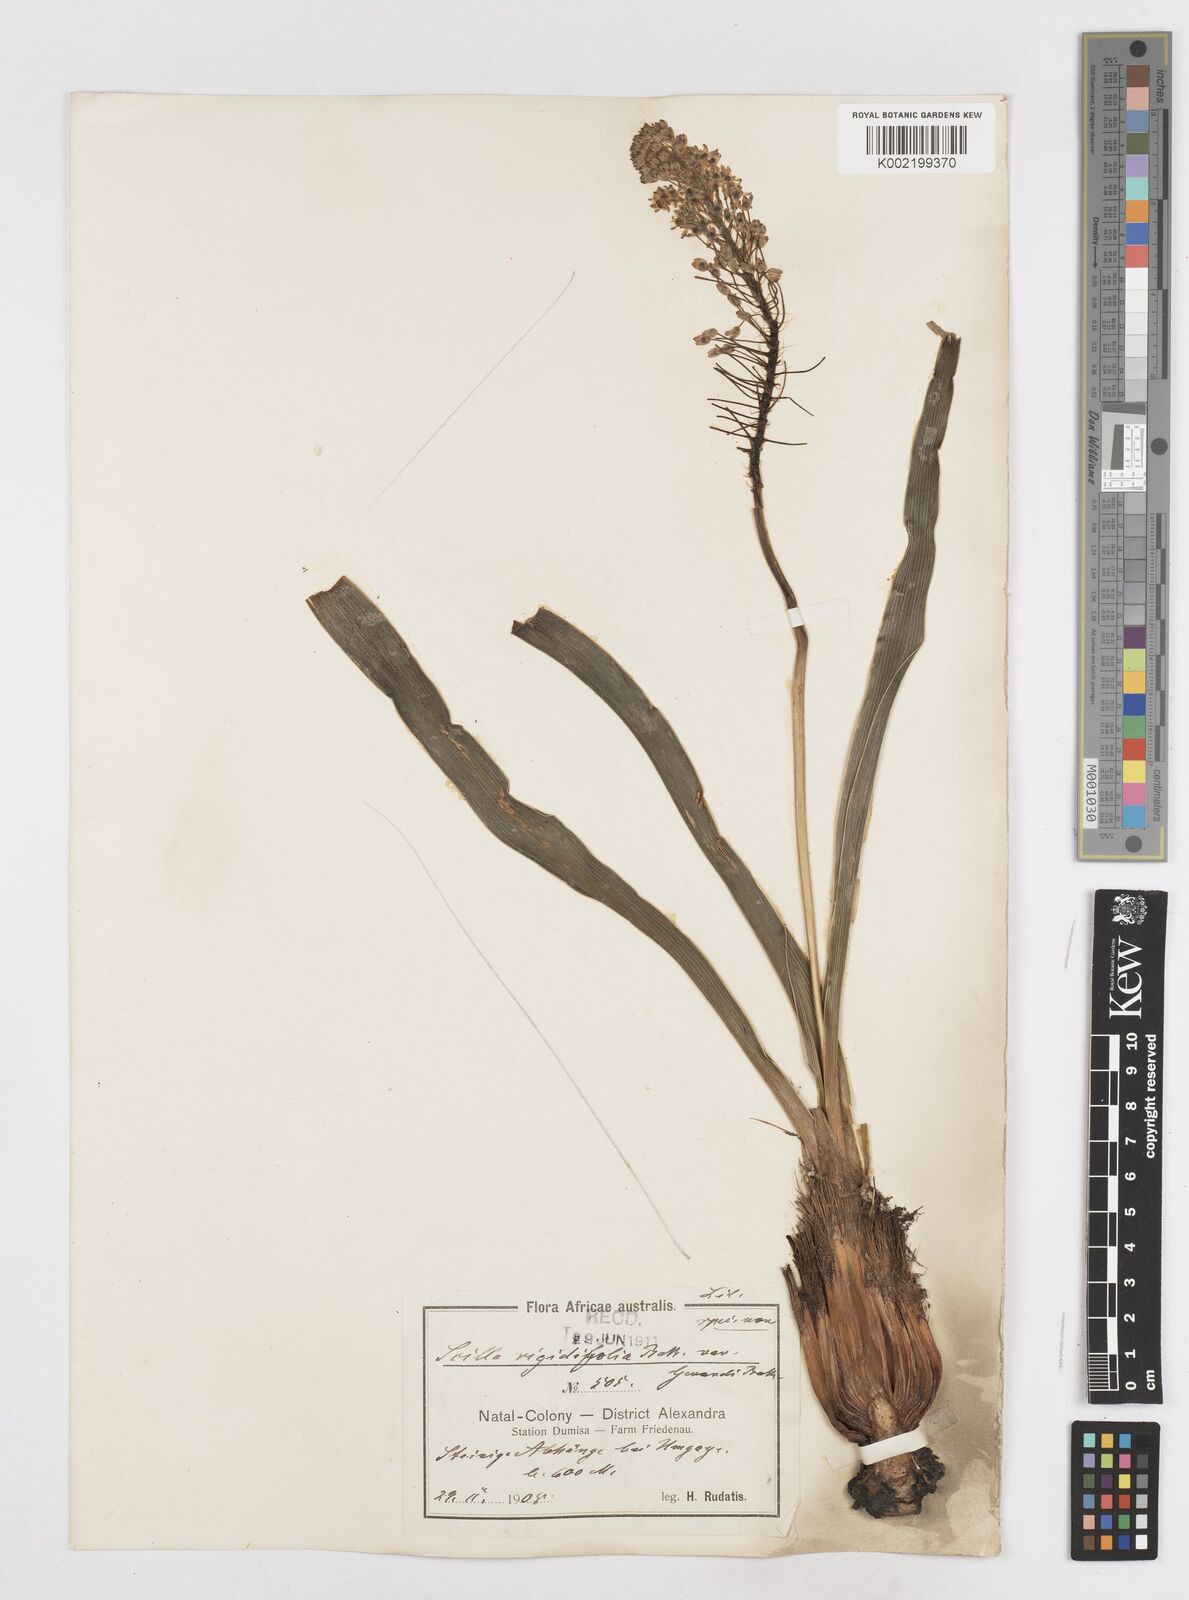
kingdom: Plantae
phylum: Tracheophyta
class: Liliopsida
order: Asparagales
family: Asparagaceae
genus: Schizocarphus
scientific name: Schizocarphus nervosus
